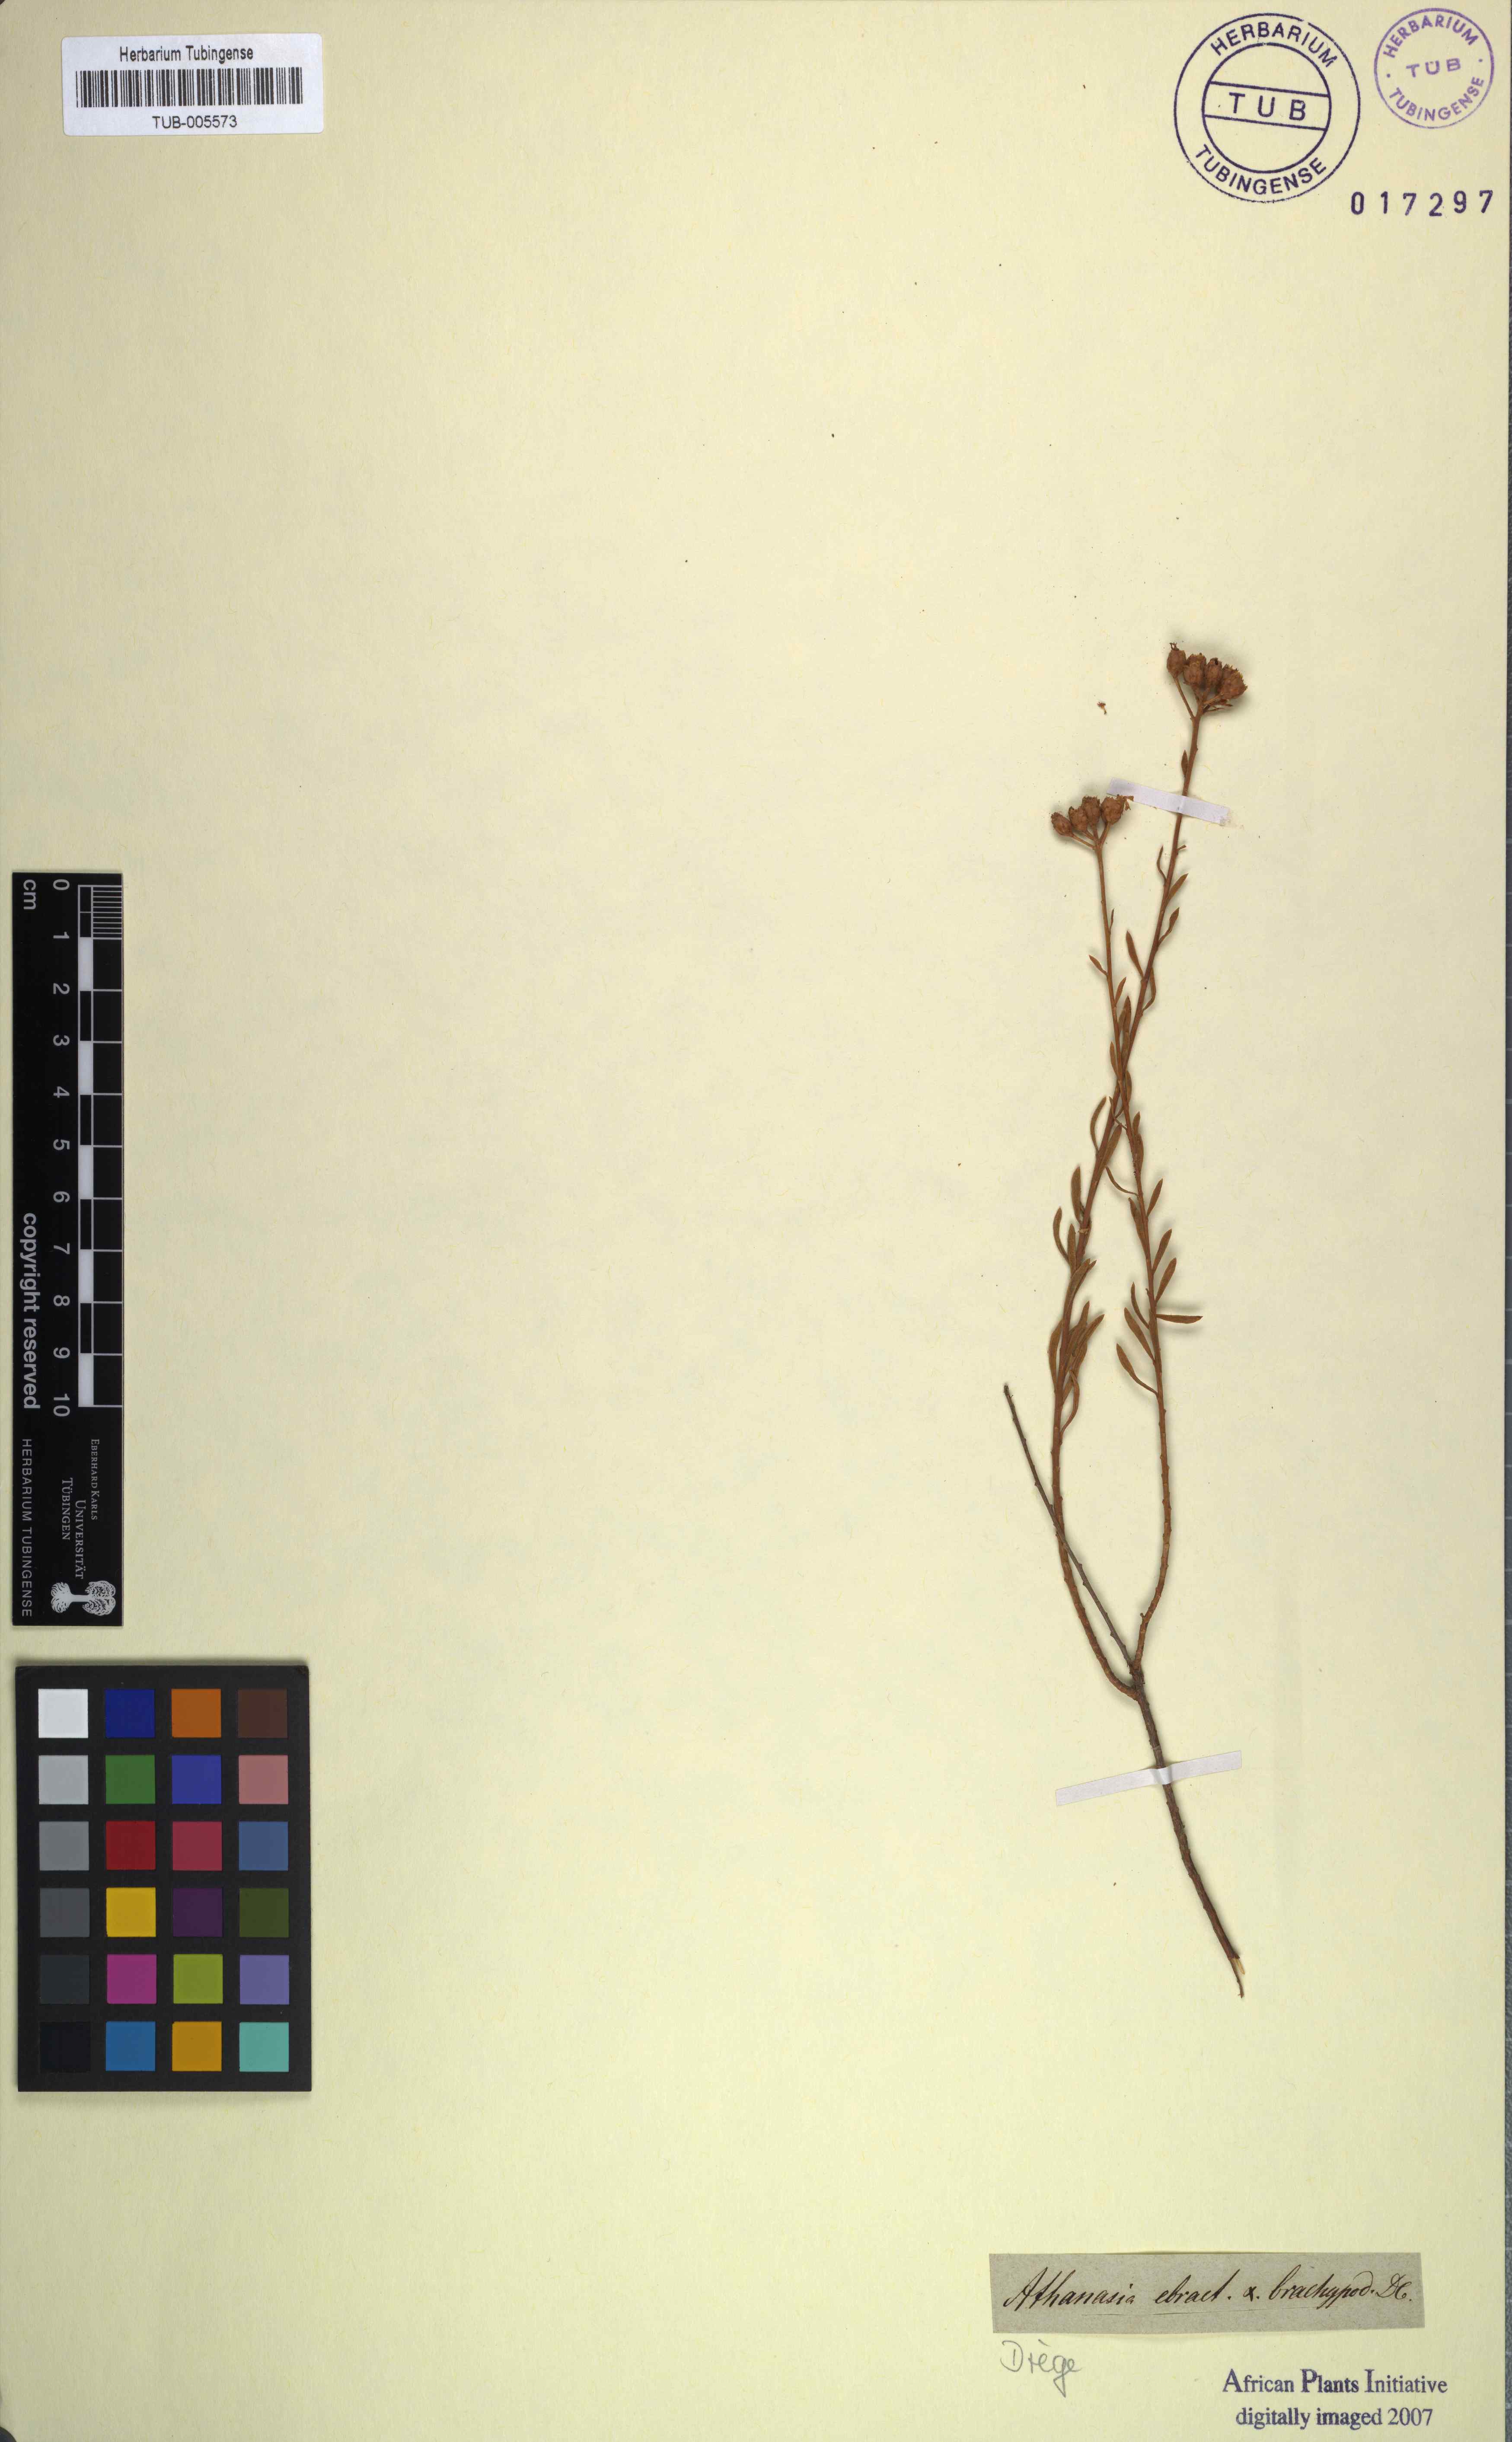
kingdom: Plantae
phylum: Tracheophyta
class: Magnoliopsida
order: Asterales
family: Asteraceae
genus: Athanasia
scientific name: Athanasia crenata
